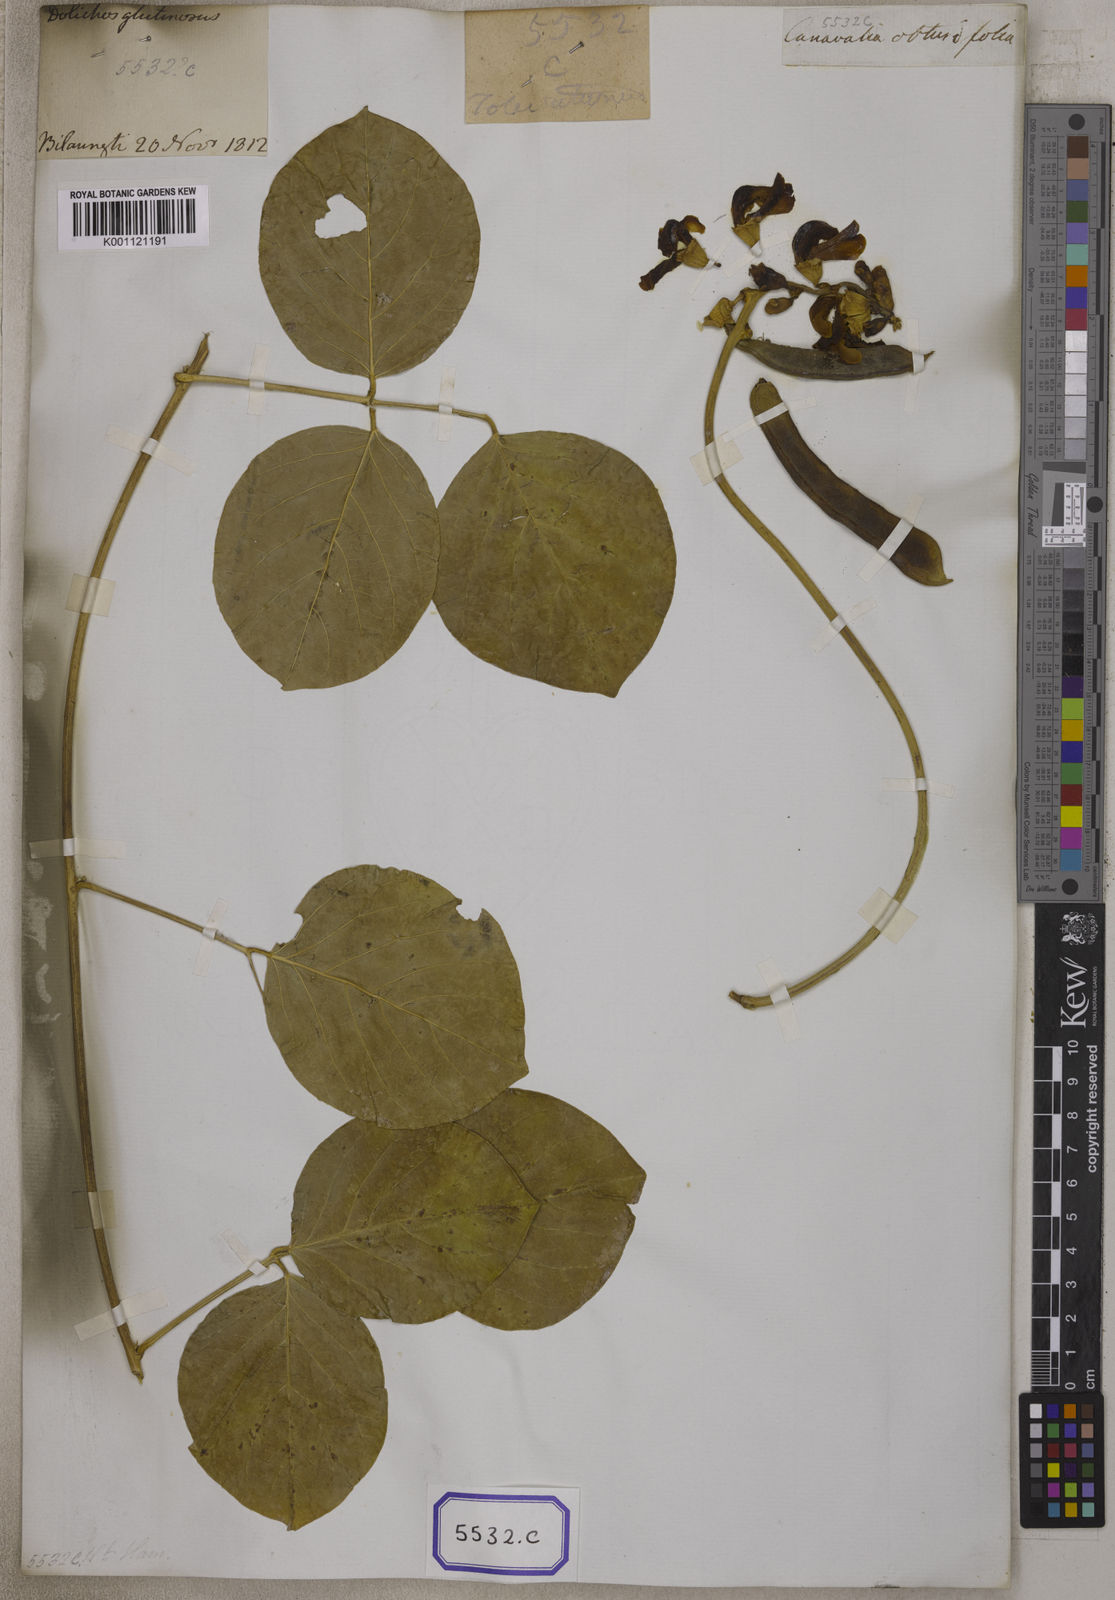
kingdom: Plantae
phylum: Tracheophyta
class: Magnoliopsida
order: Fabales
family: Fabaceae
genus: Canavalia
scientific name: Canavalia rosea
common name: Beach-bean
